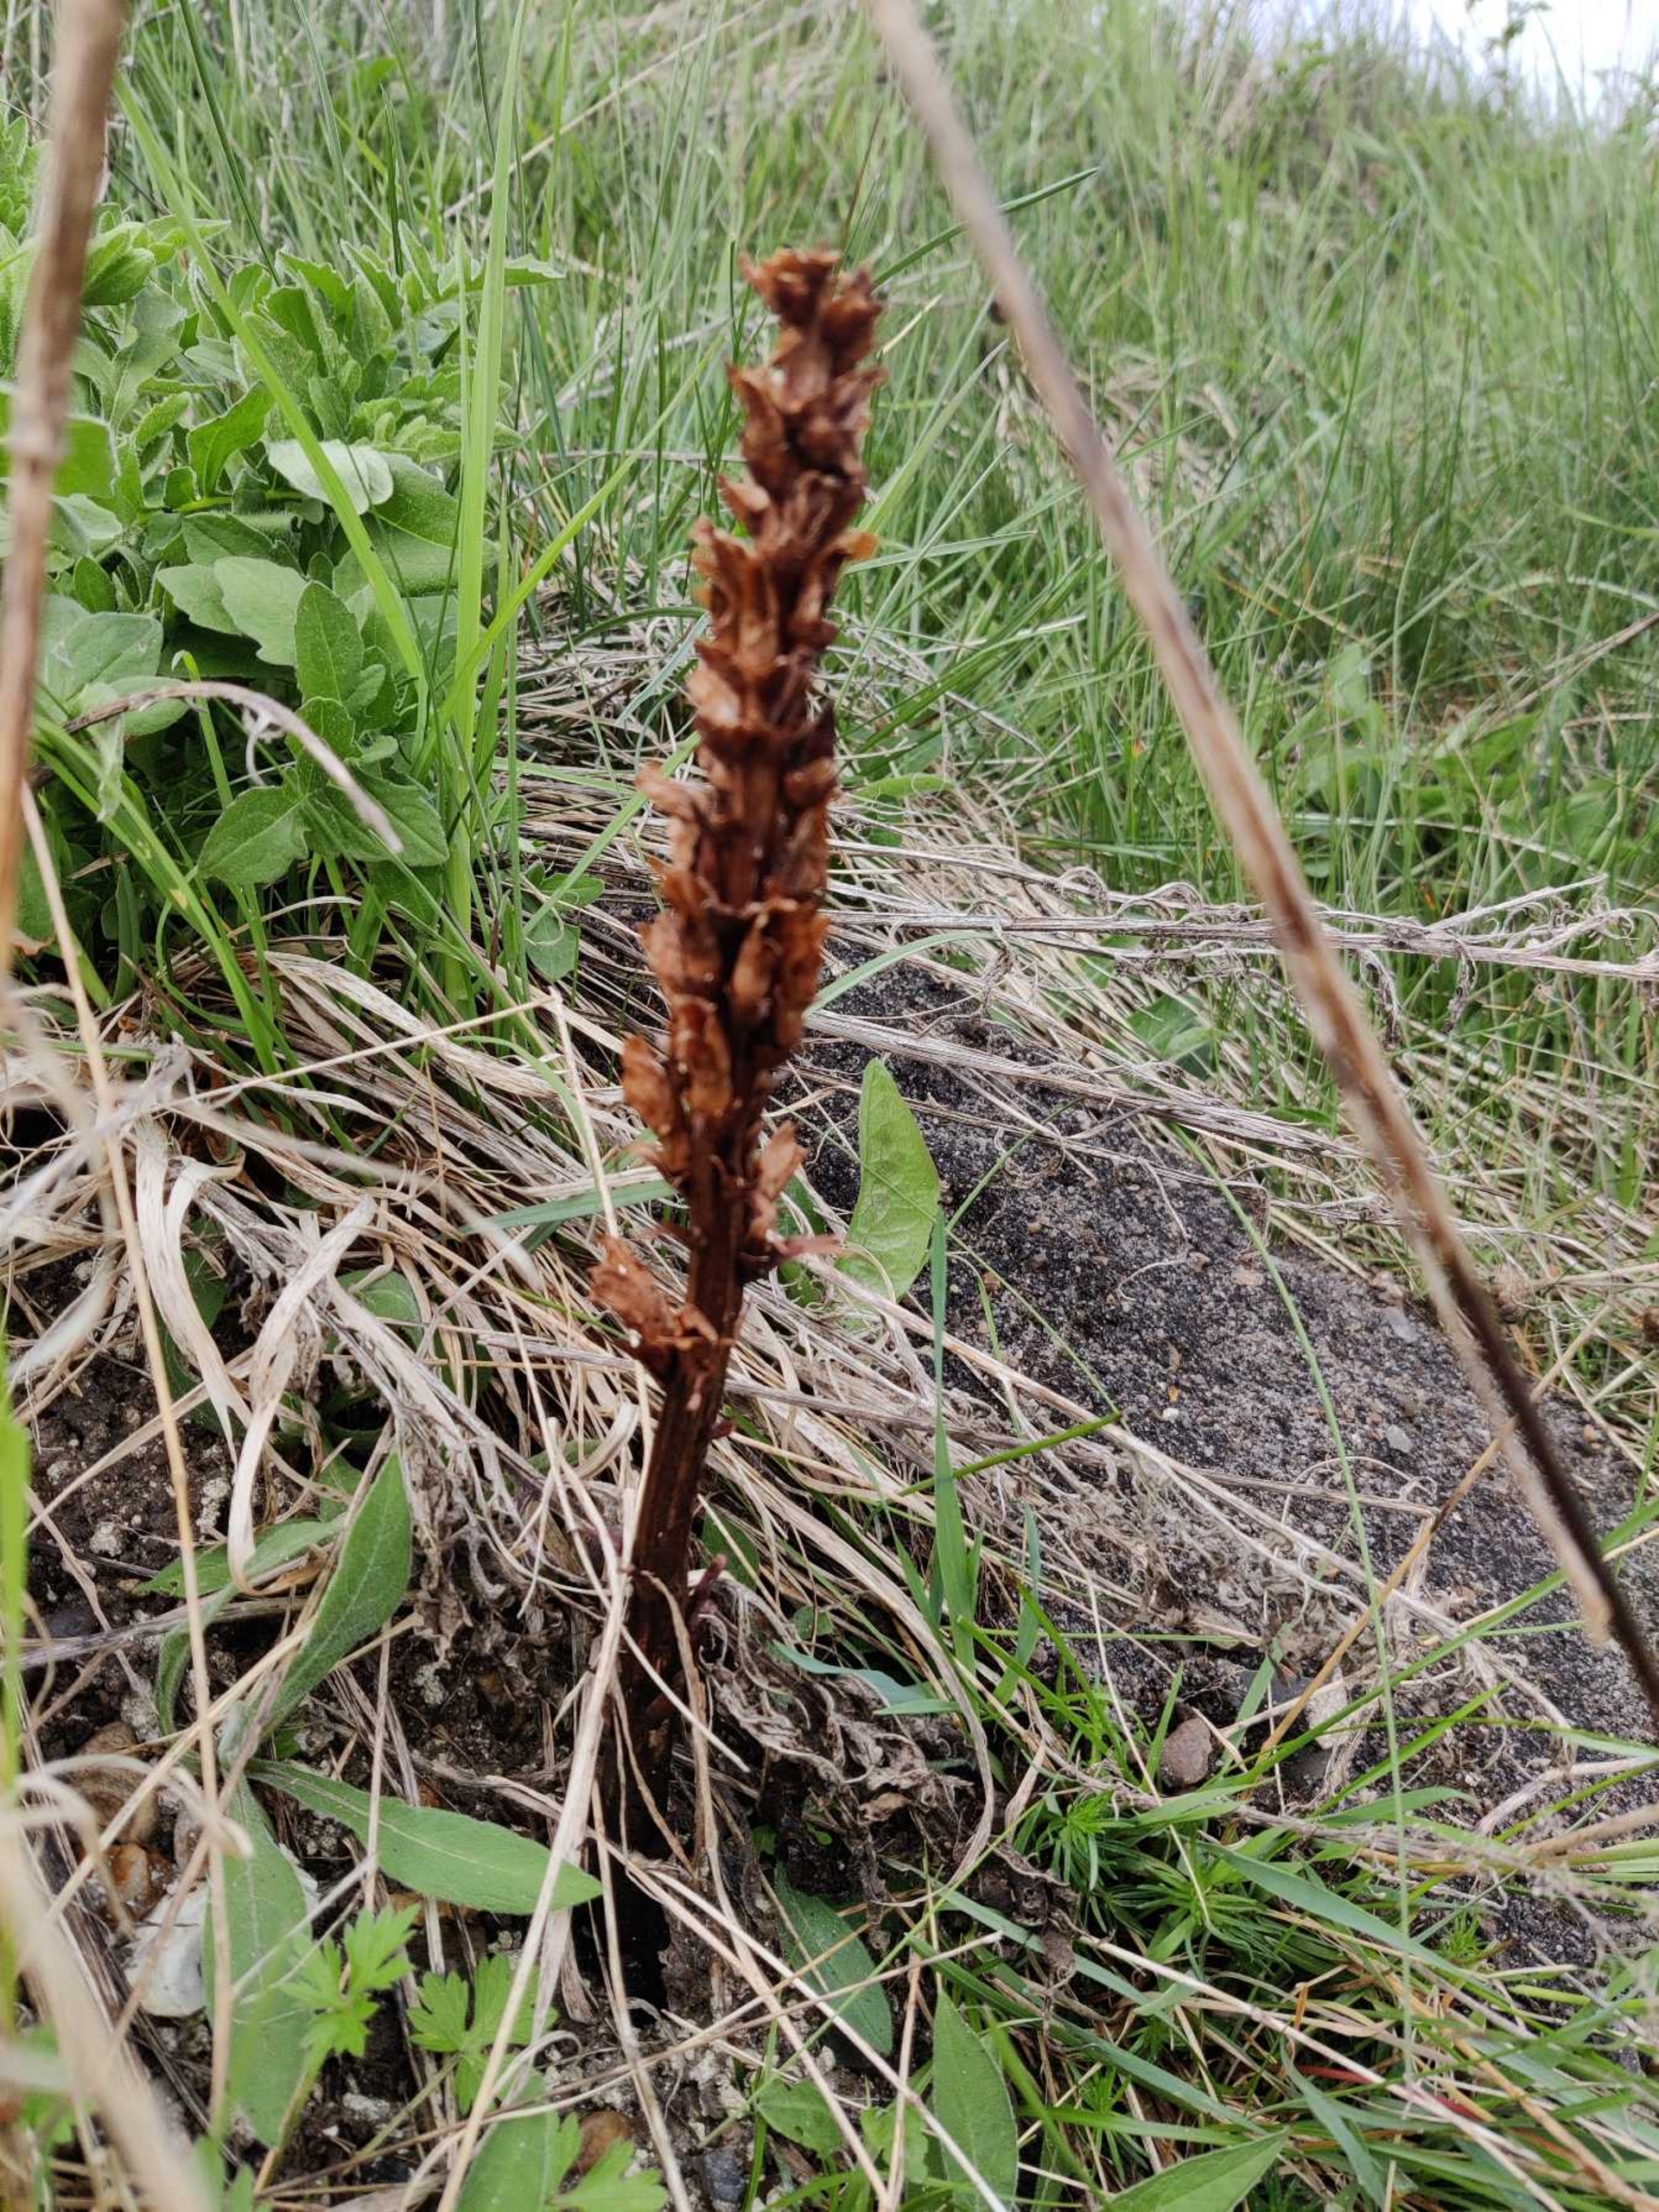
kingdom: Plantae
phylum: Tracheophyta
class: Magnoliopsida
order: Lamiales
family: Orobanchaceae
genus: Orobanche
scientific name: Orobanche elatior
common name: Stor gyvelkvæler
